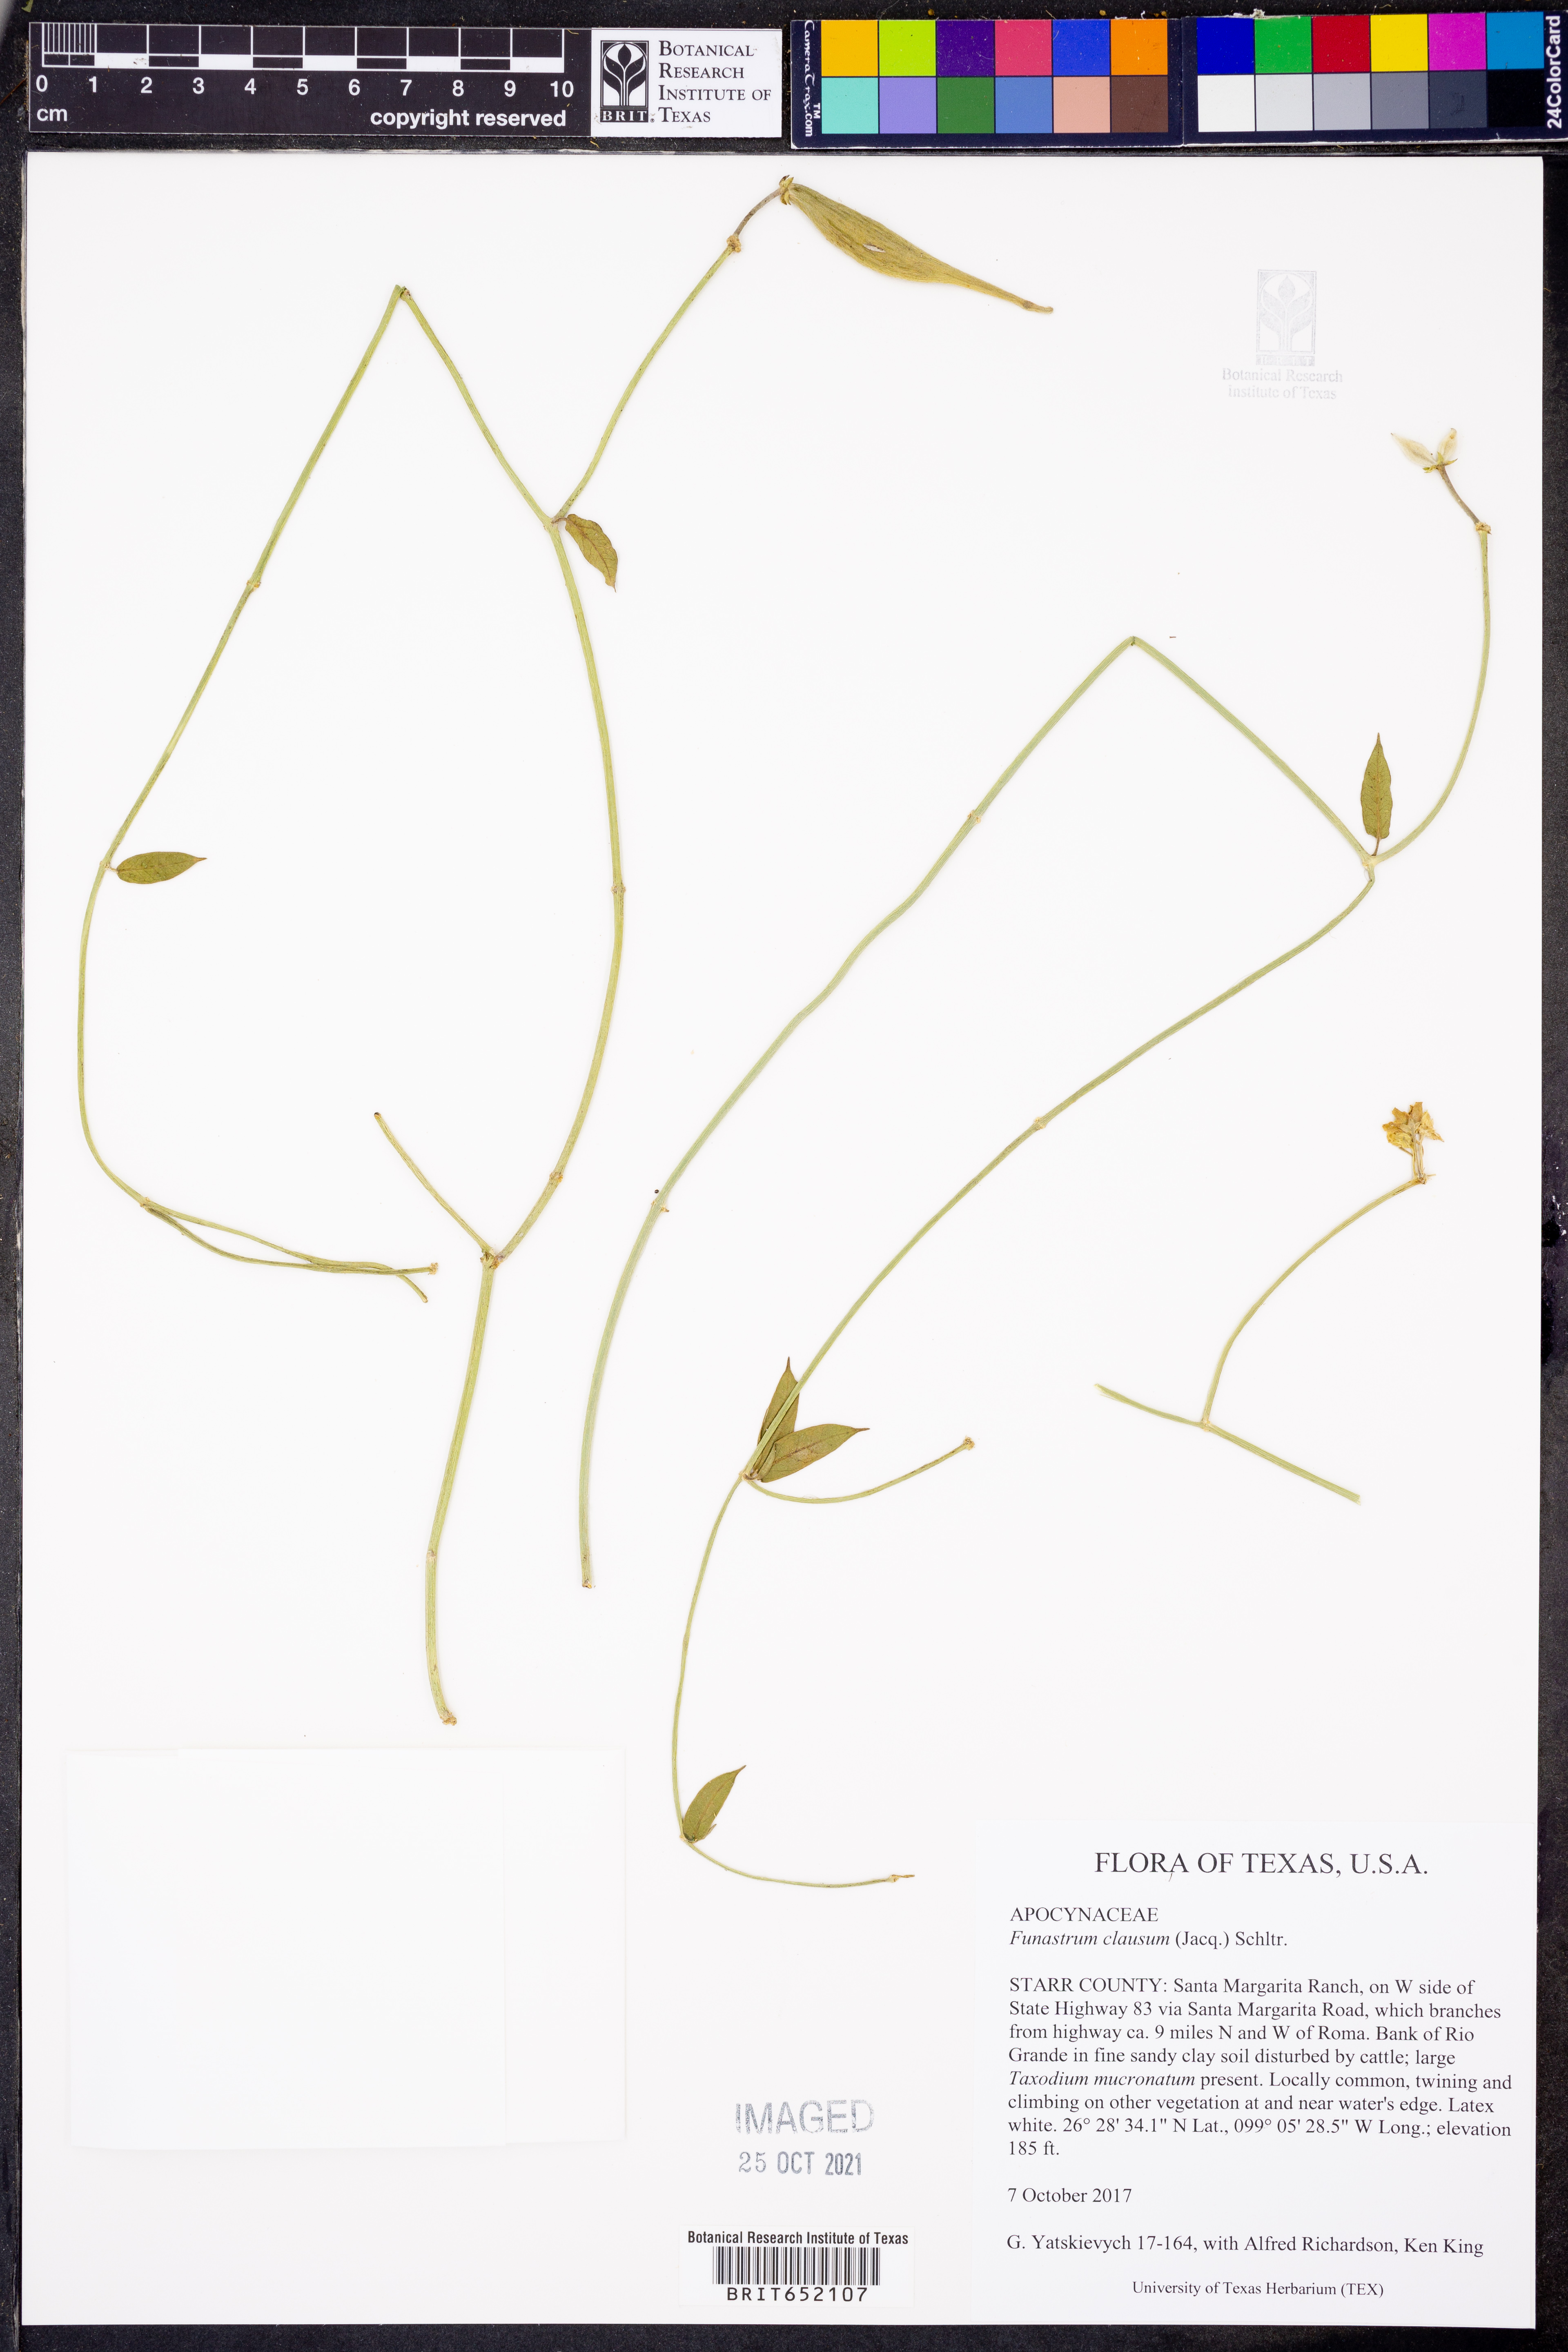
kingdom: Plantae
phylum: Tracheophyta
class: Magnoliopsida
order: Gentianales
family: Apocynaceae
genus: Funastrum
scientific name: Funastrum clausum
